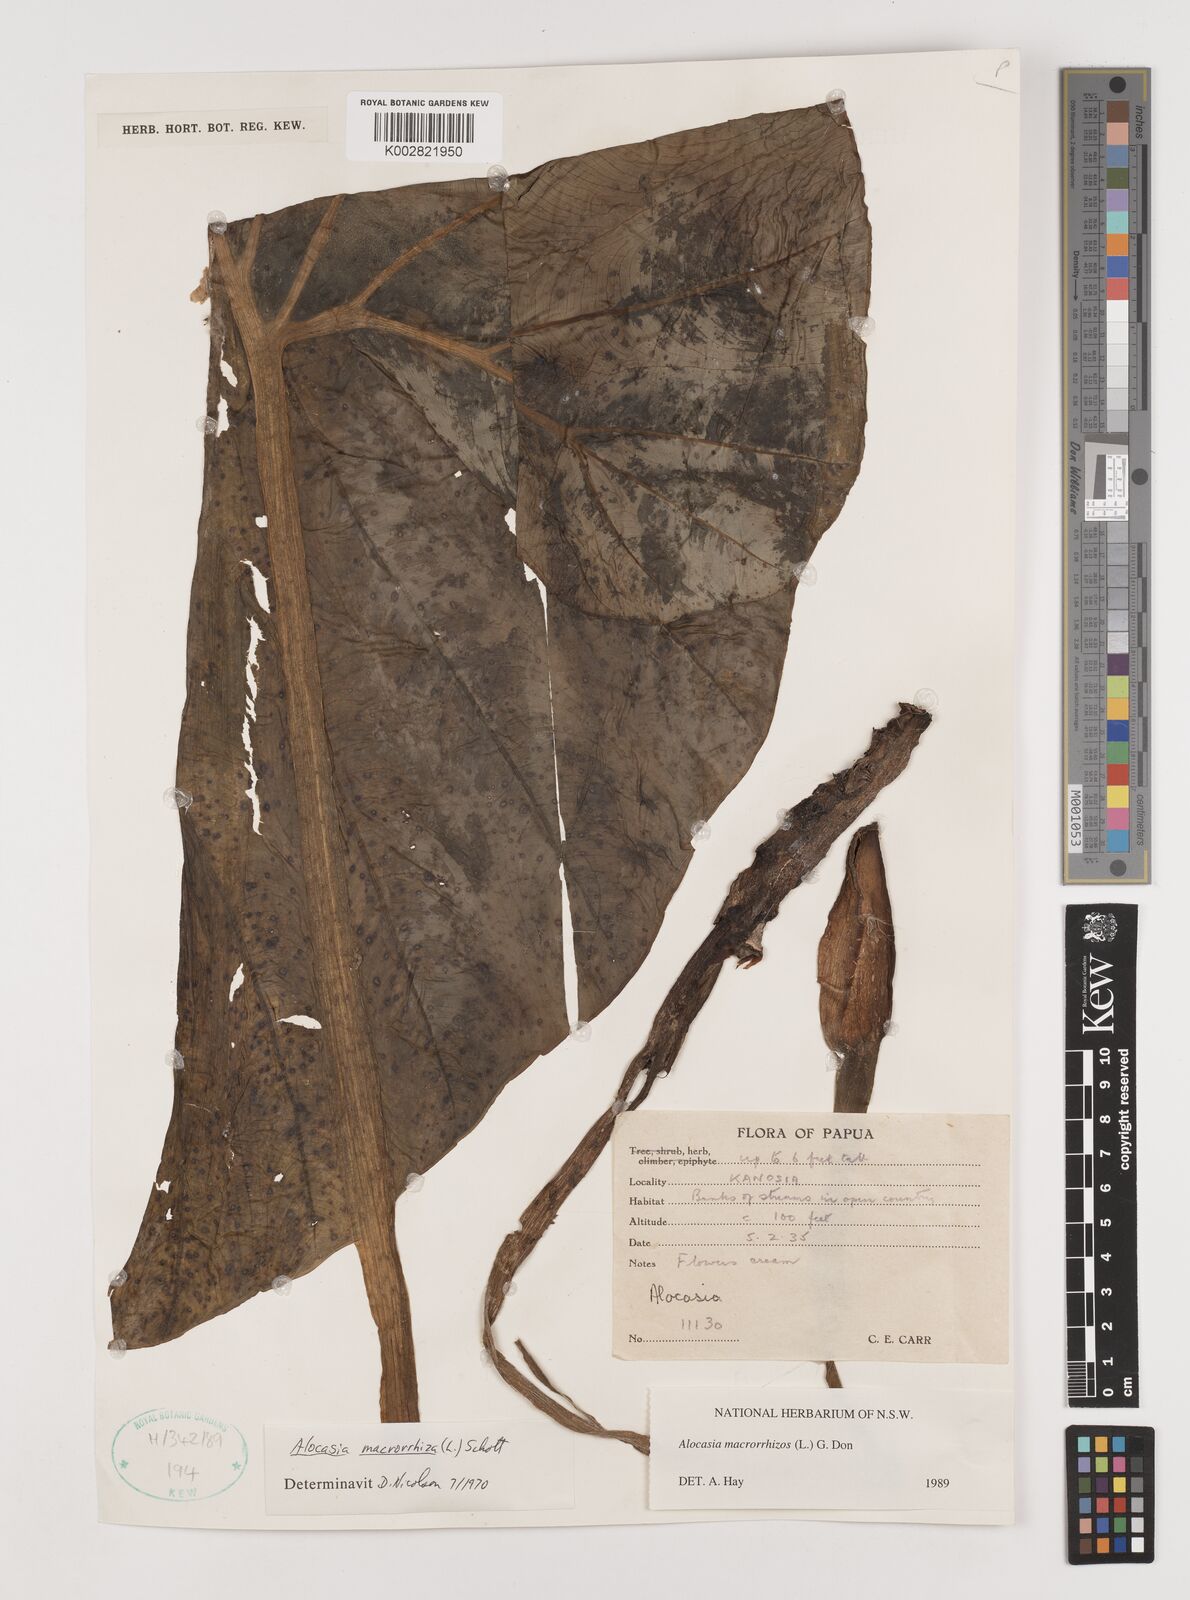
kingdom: Plantae
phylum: Tracheophyta
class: Liliopsida
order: Alismatales
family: Araceae
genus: Alocasia
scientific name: Alocasia macrorrhizos
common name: Giant taro
